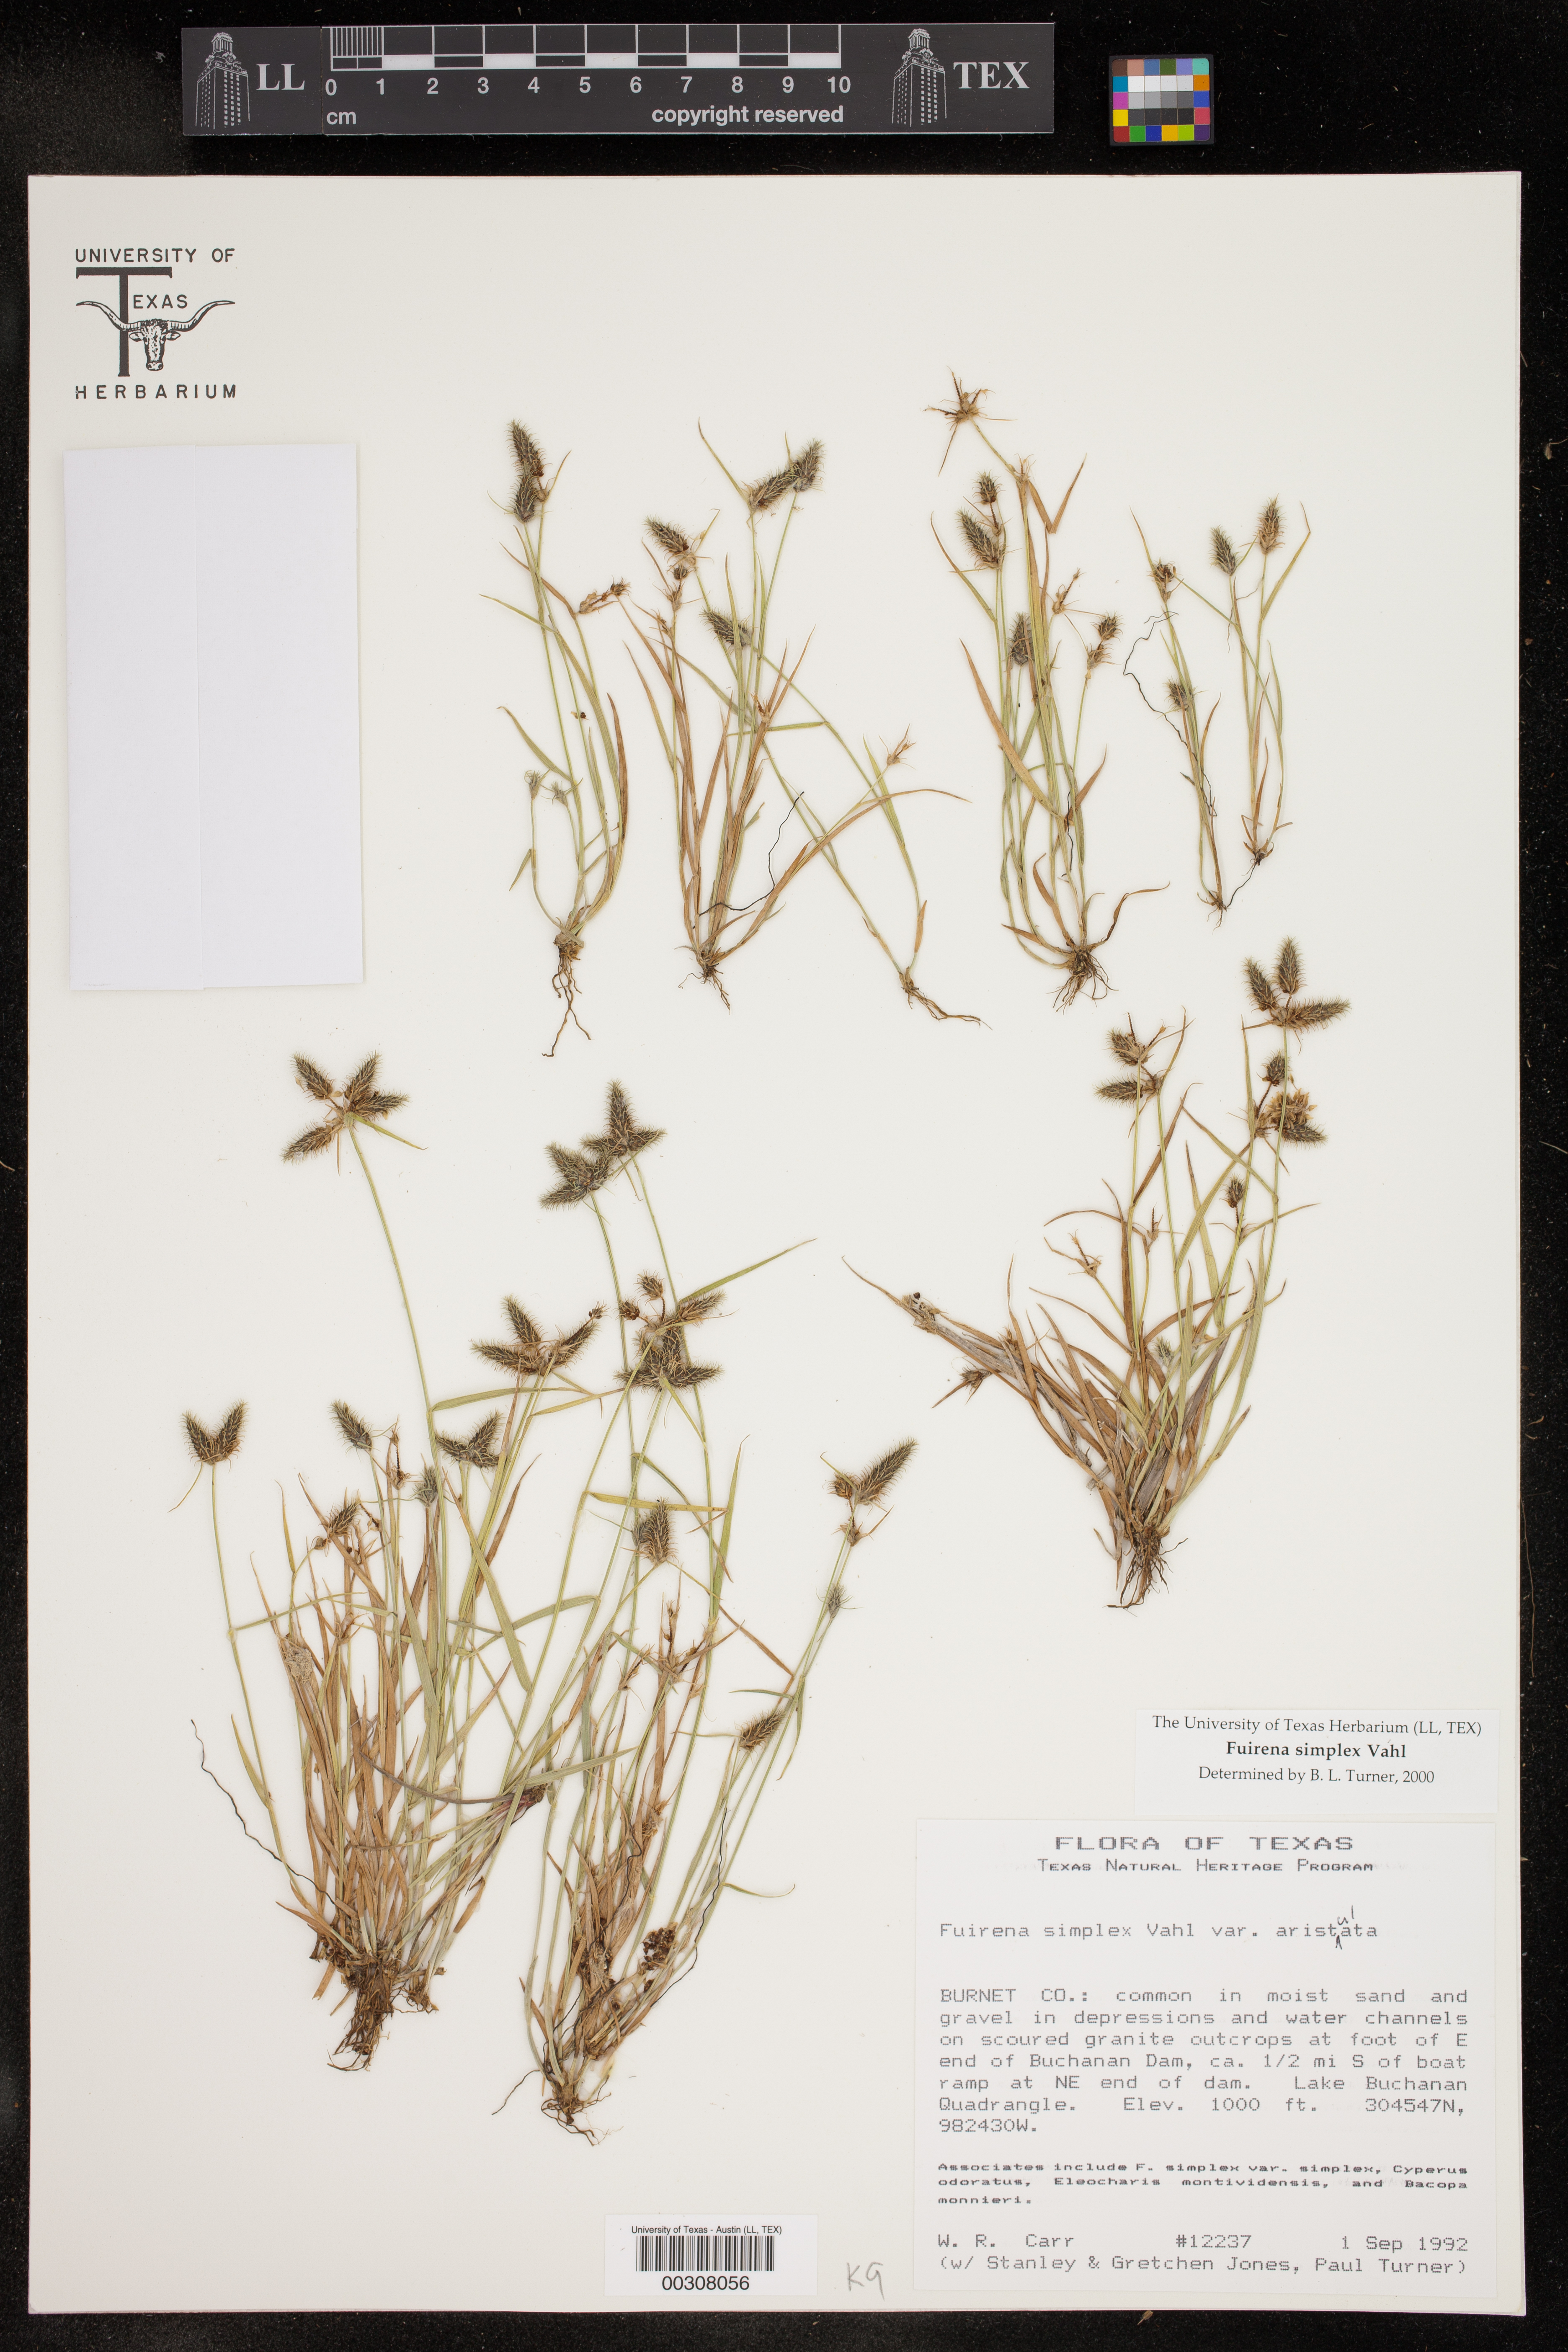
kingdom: Plantae
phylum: Tracheophyta
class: Liliopsida
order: Poales
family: Cyperaceae
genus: Fuirena
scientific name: Fuirena simplex
